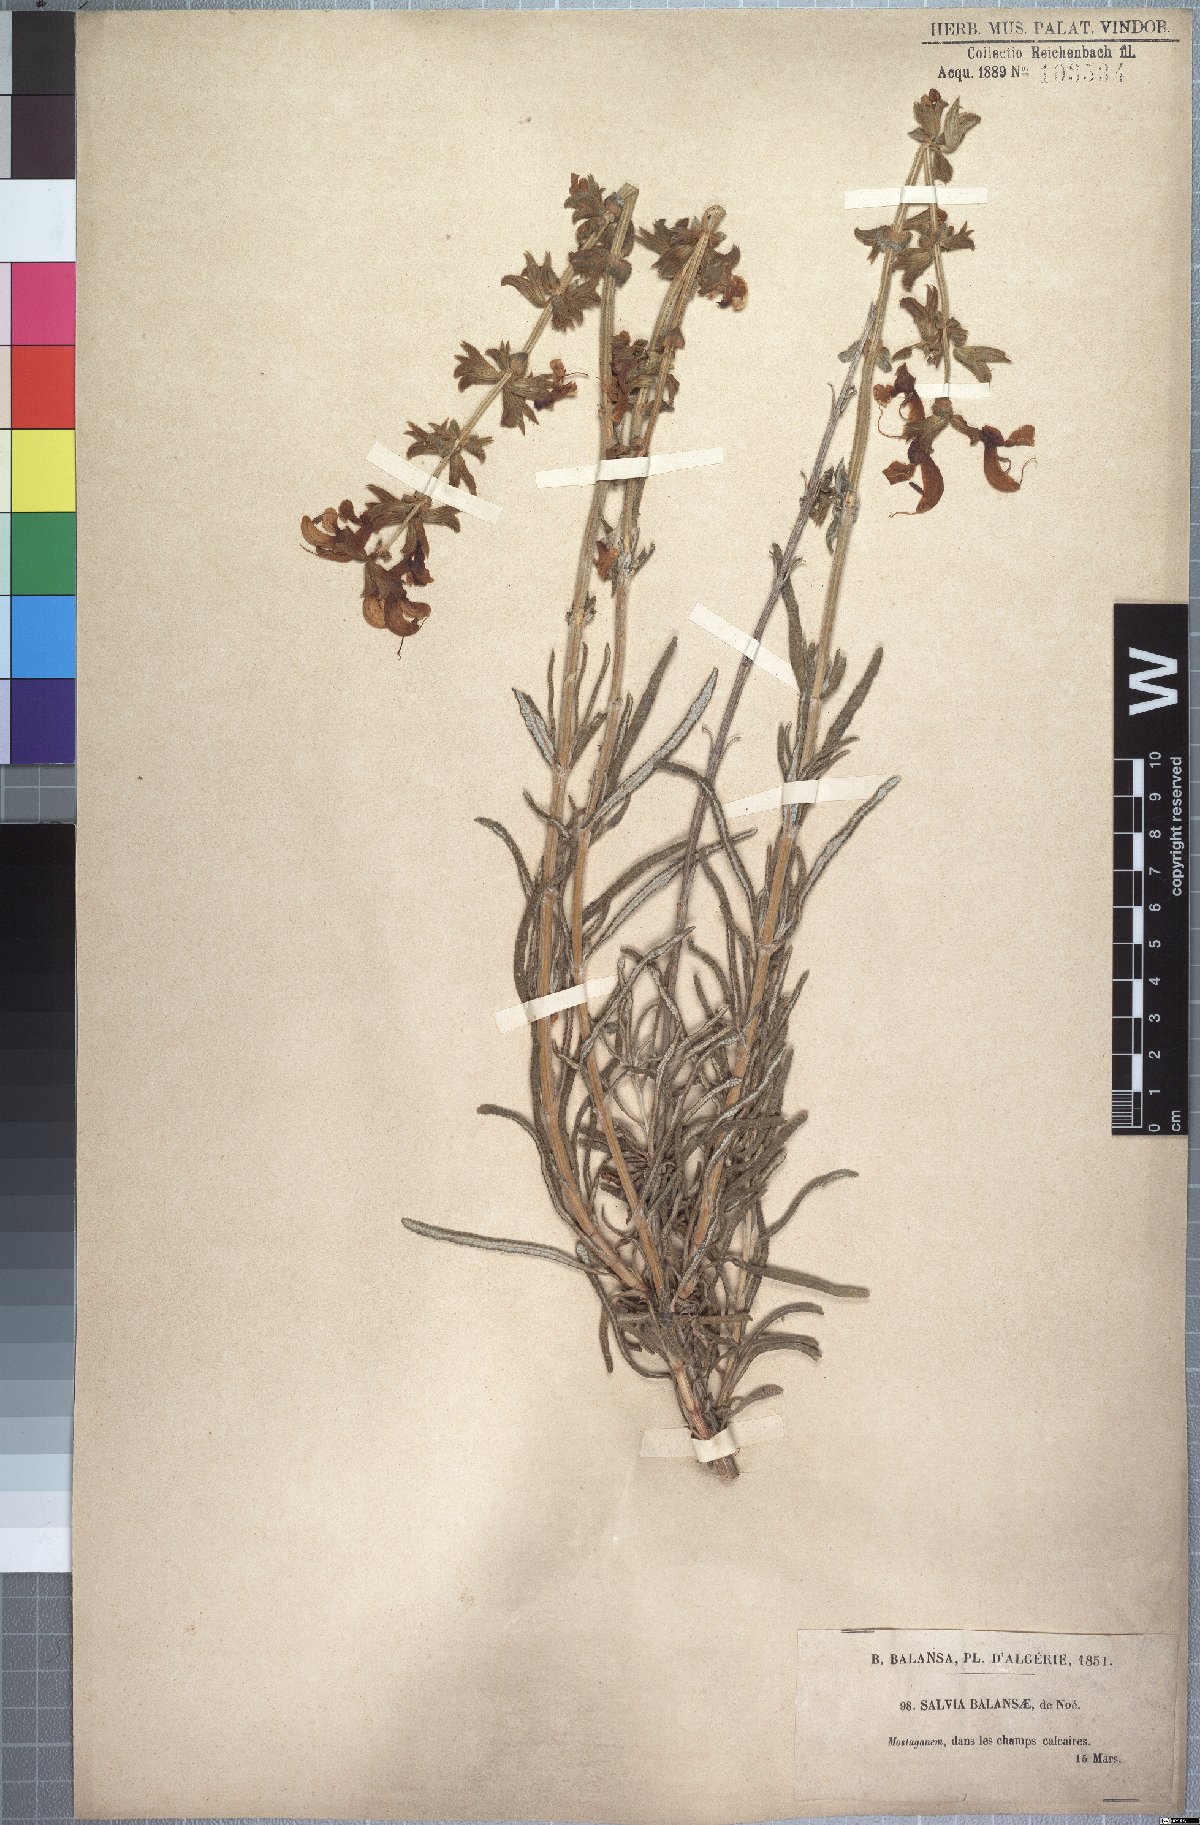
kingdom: Plantae
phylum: Tracheophyta
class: Magnoliopsida
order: Lamiales
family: Lamiaceae
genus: Salvia
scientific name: Salvia balansae
